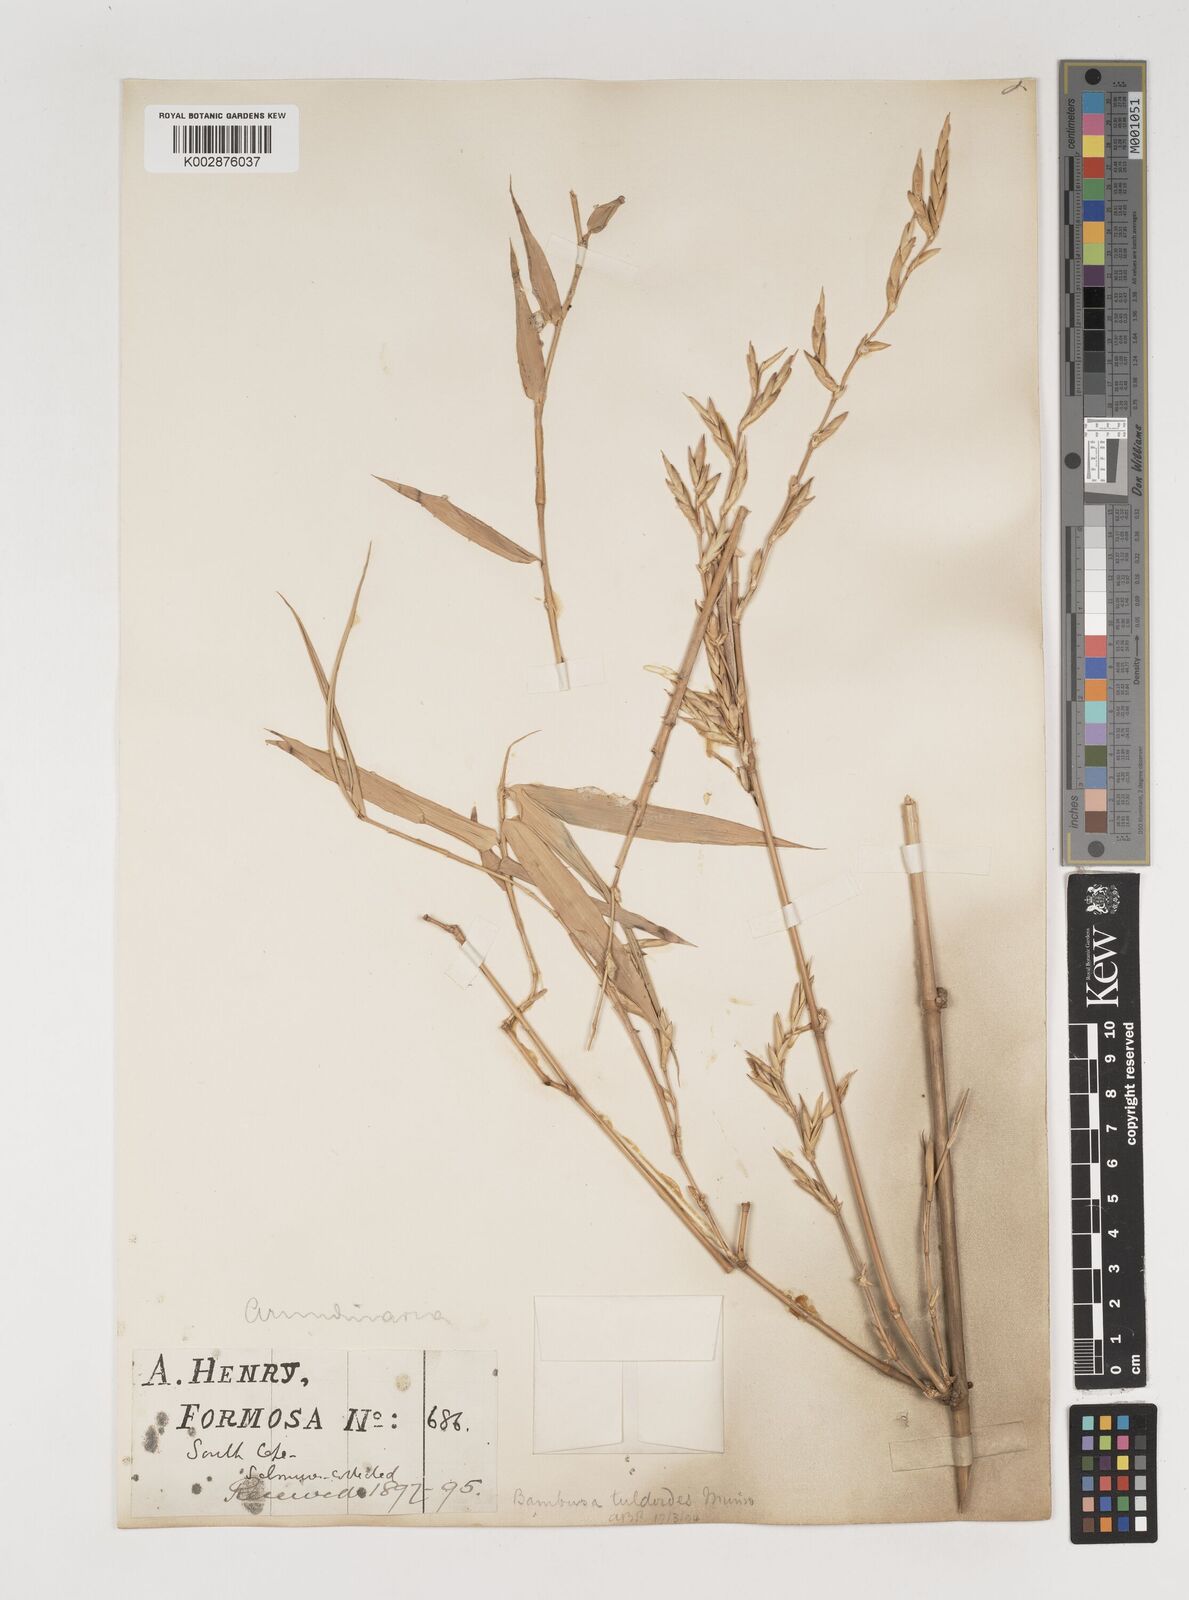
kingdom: Plantae
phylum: Tracheophyta
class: Liliopsida
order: Poales
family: Poaceae
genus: Bambusa
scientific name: Bambusa tuldoides
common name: Verdant bamboo
